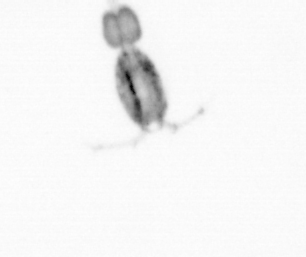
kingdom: Animalia
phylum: Arthropoda
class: Copepoda
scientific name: Copepoda
